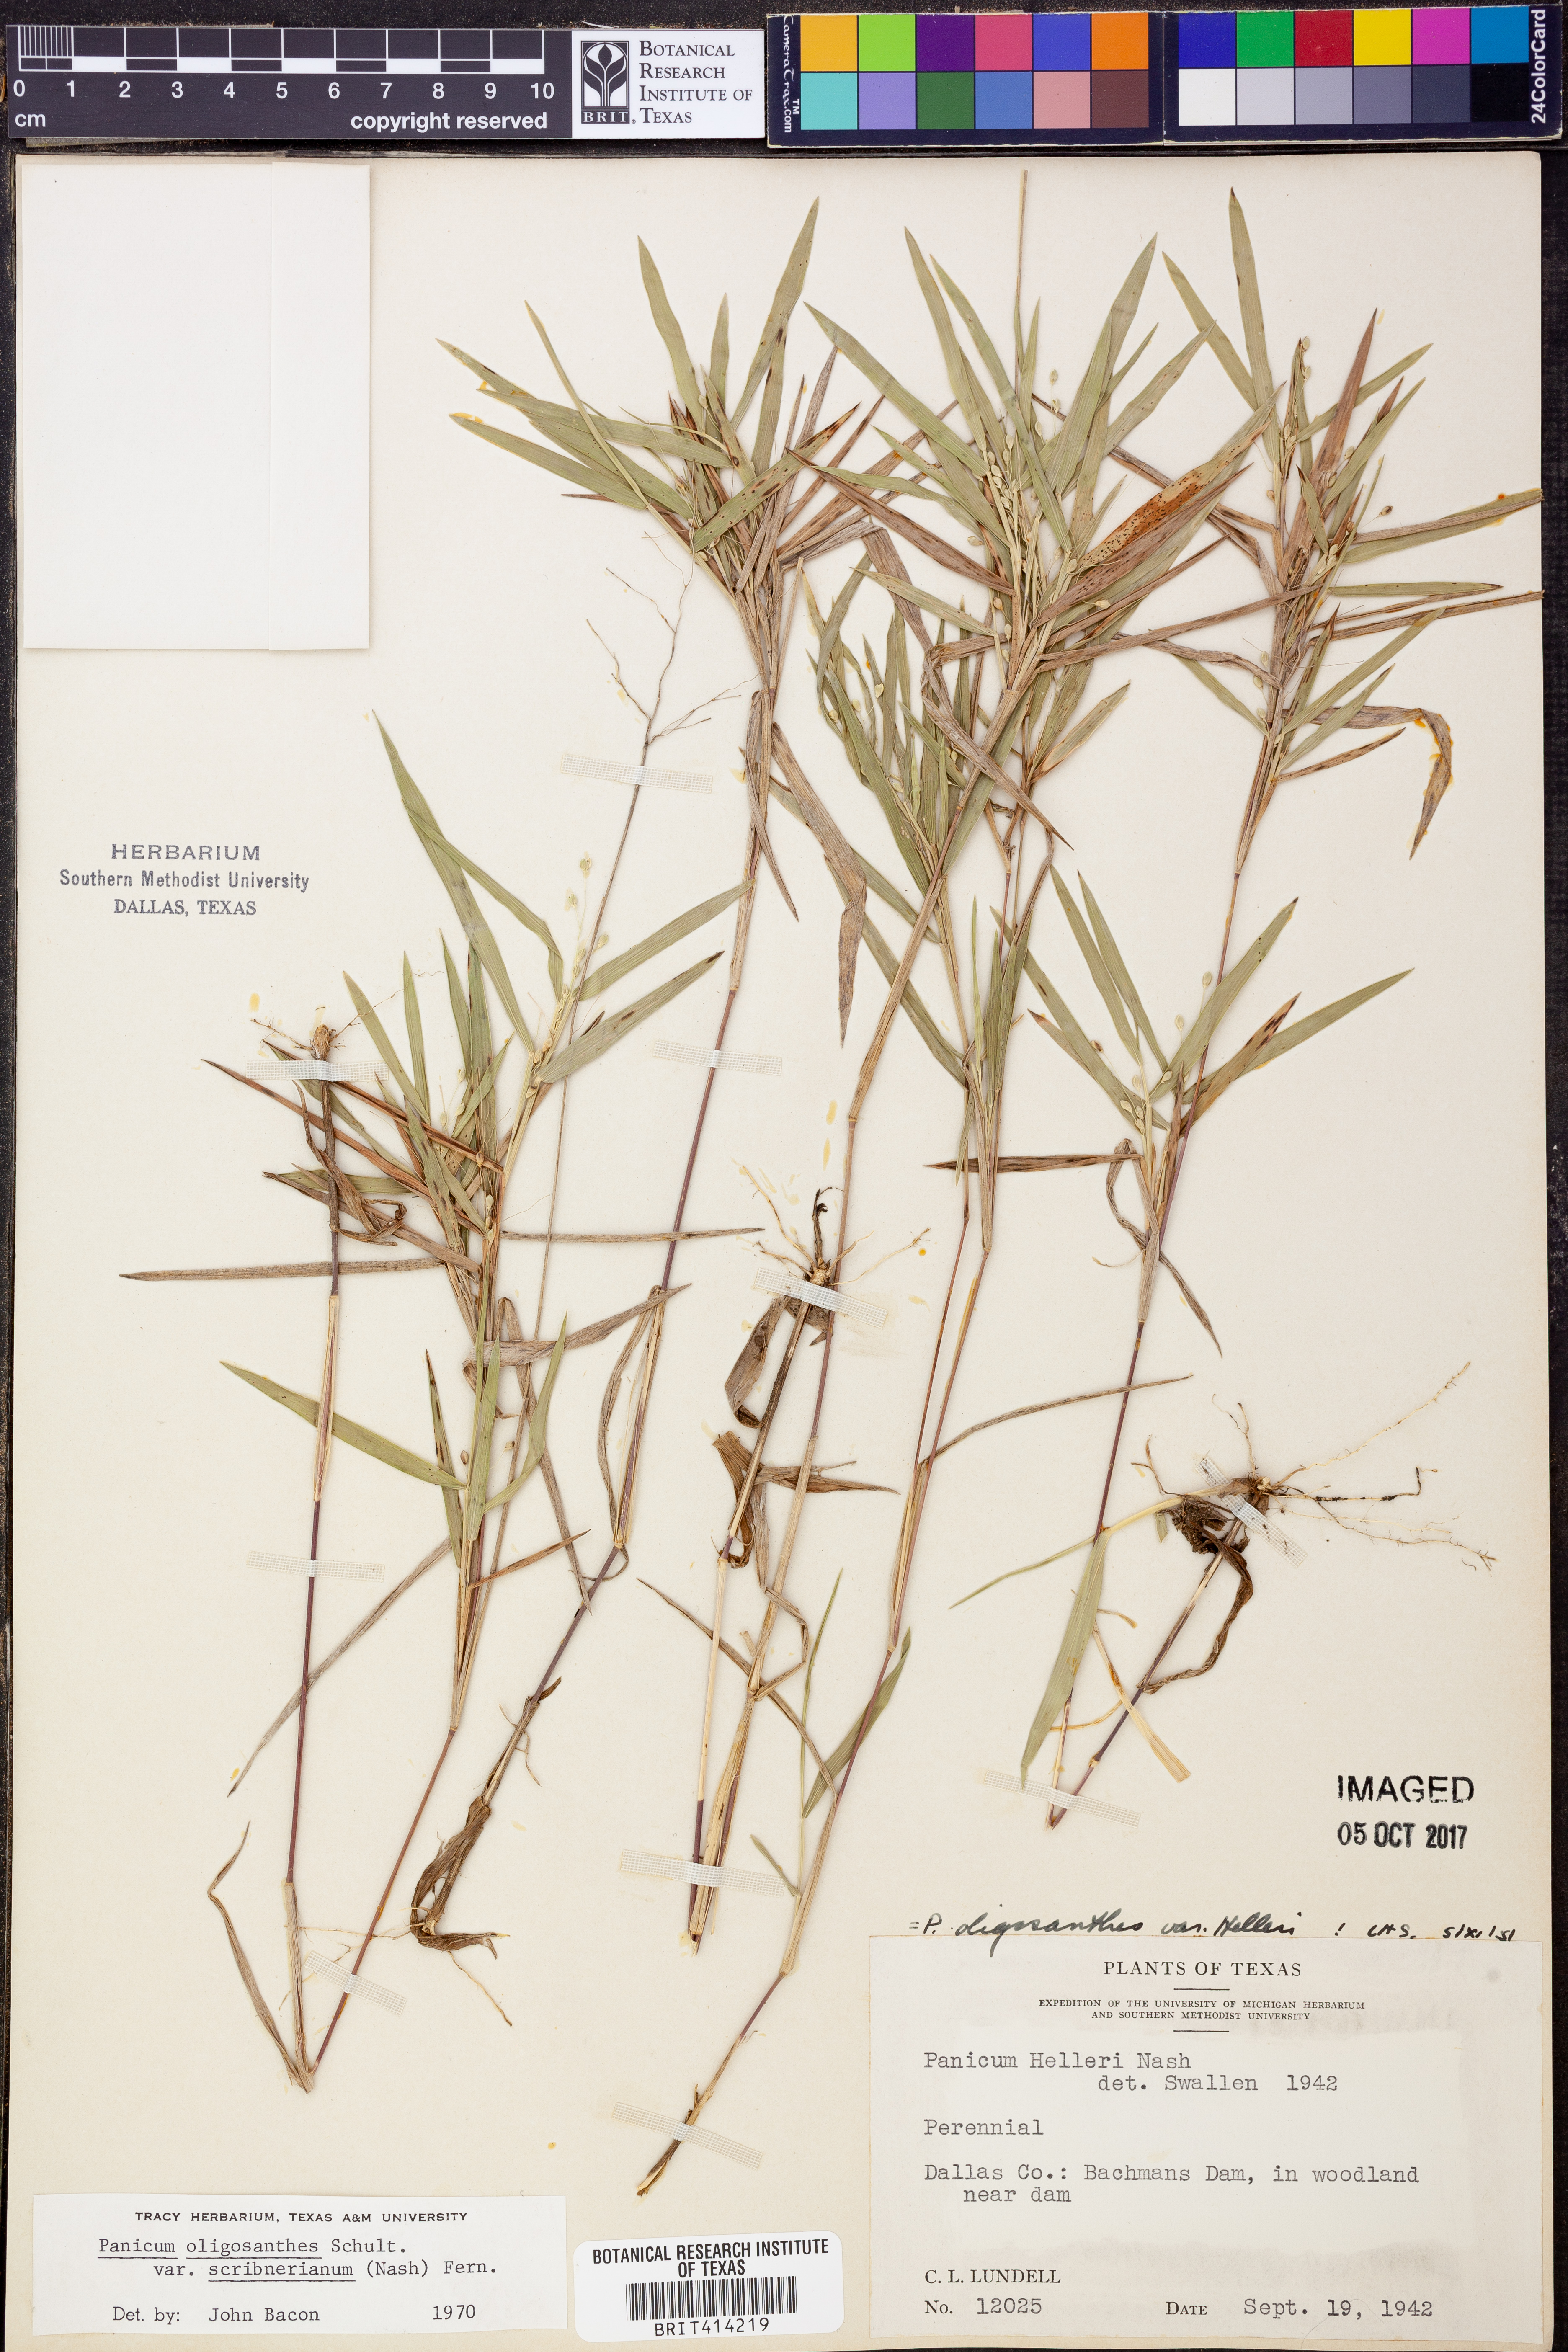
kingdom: Plantae
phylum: Tracheophyta
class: Liliopsida
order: Poales
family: Poaceae
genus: Dichanthelium
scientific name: Dichanthelium scribnerianum
